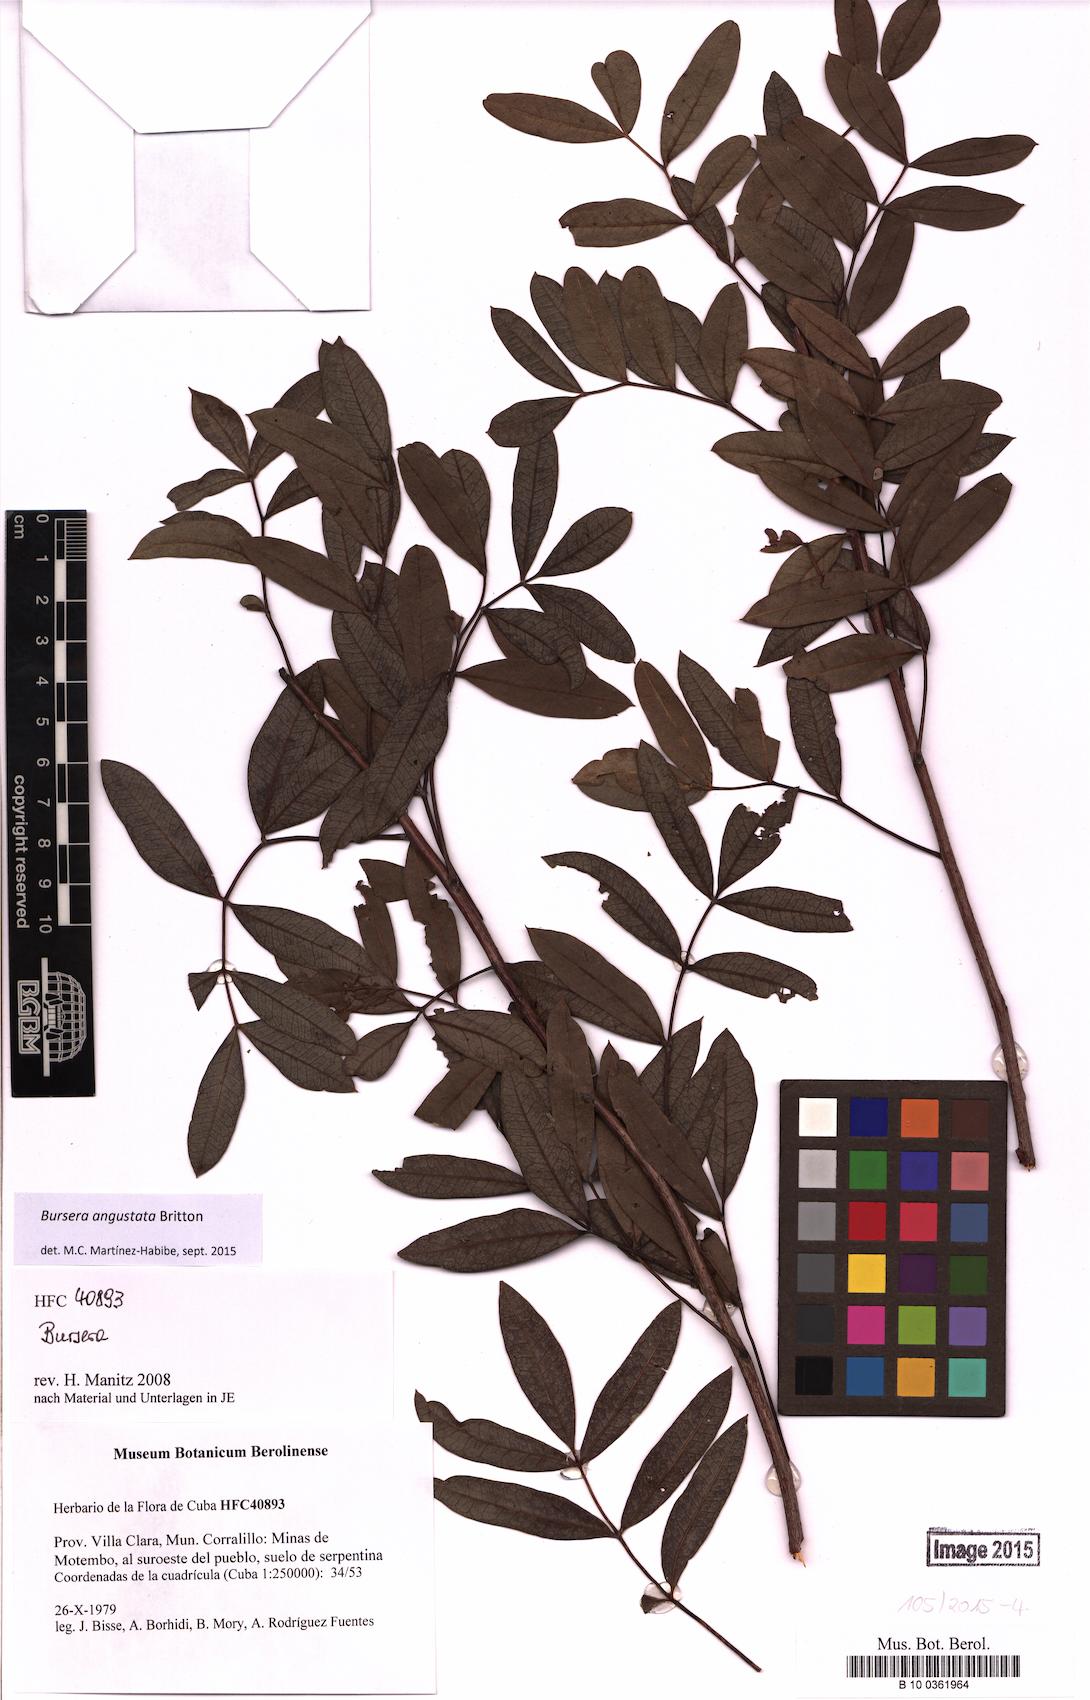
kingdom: Plantae
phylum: Tracheophyta
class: Magnoliopsida
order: Sapindales
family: Burseraceae
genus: Bursera
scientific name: Bursera angustata
